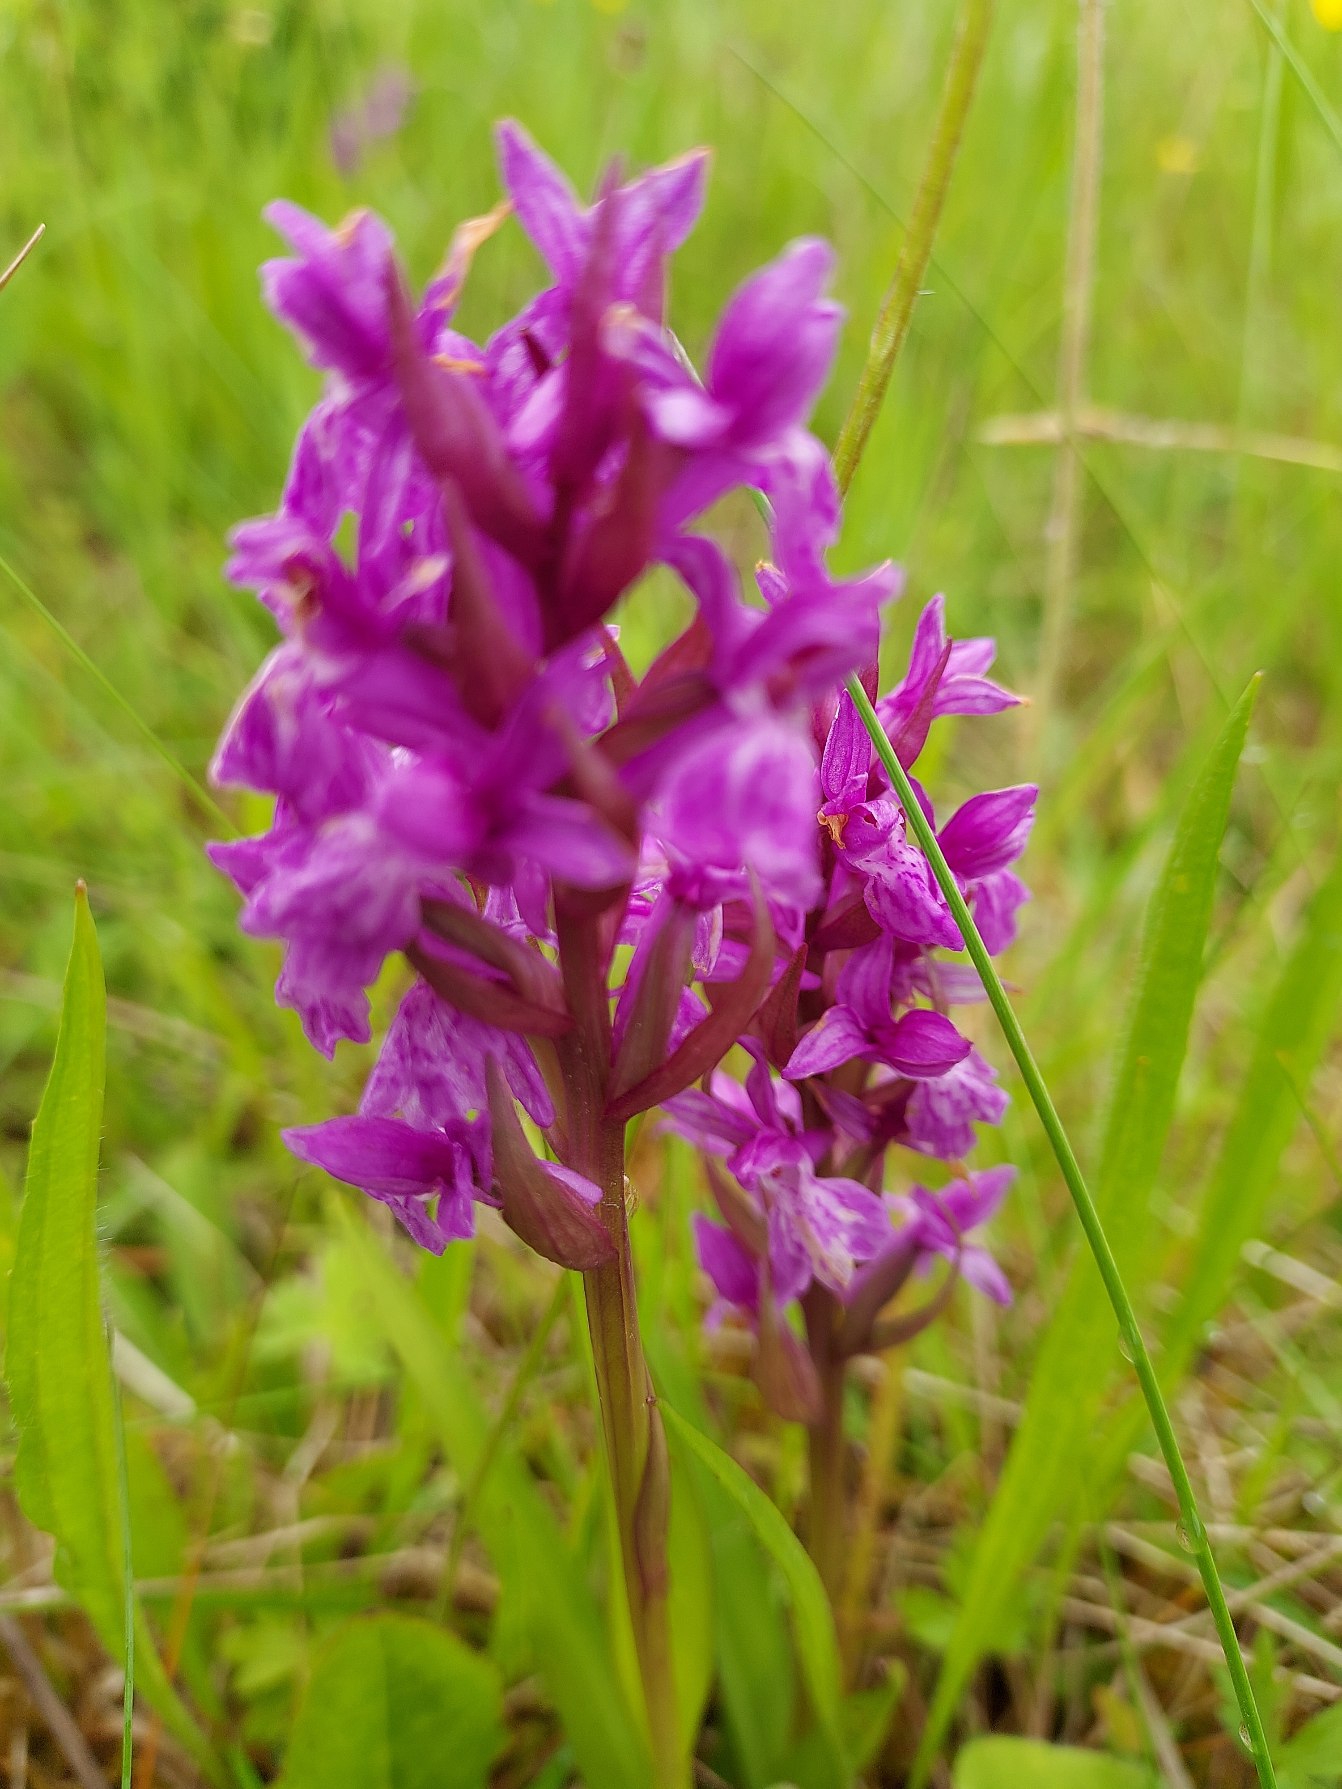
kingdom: Plantae
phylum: Tracheophyta
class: Liliopsida
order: Asparagales
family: Orchidaceae
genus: Dactylorhiza
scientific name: Dactylorhiza majalis
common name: Maj-gøgeurt
